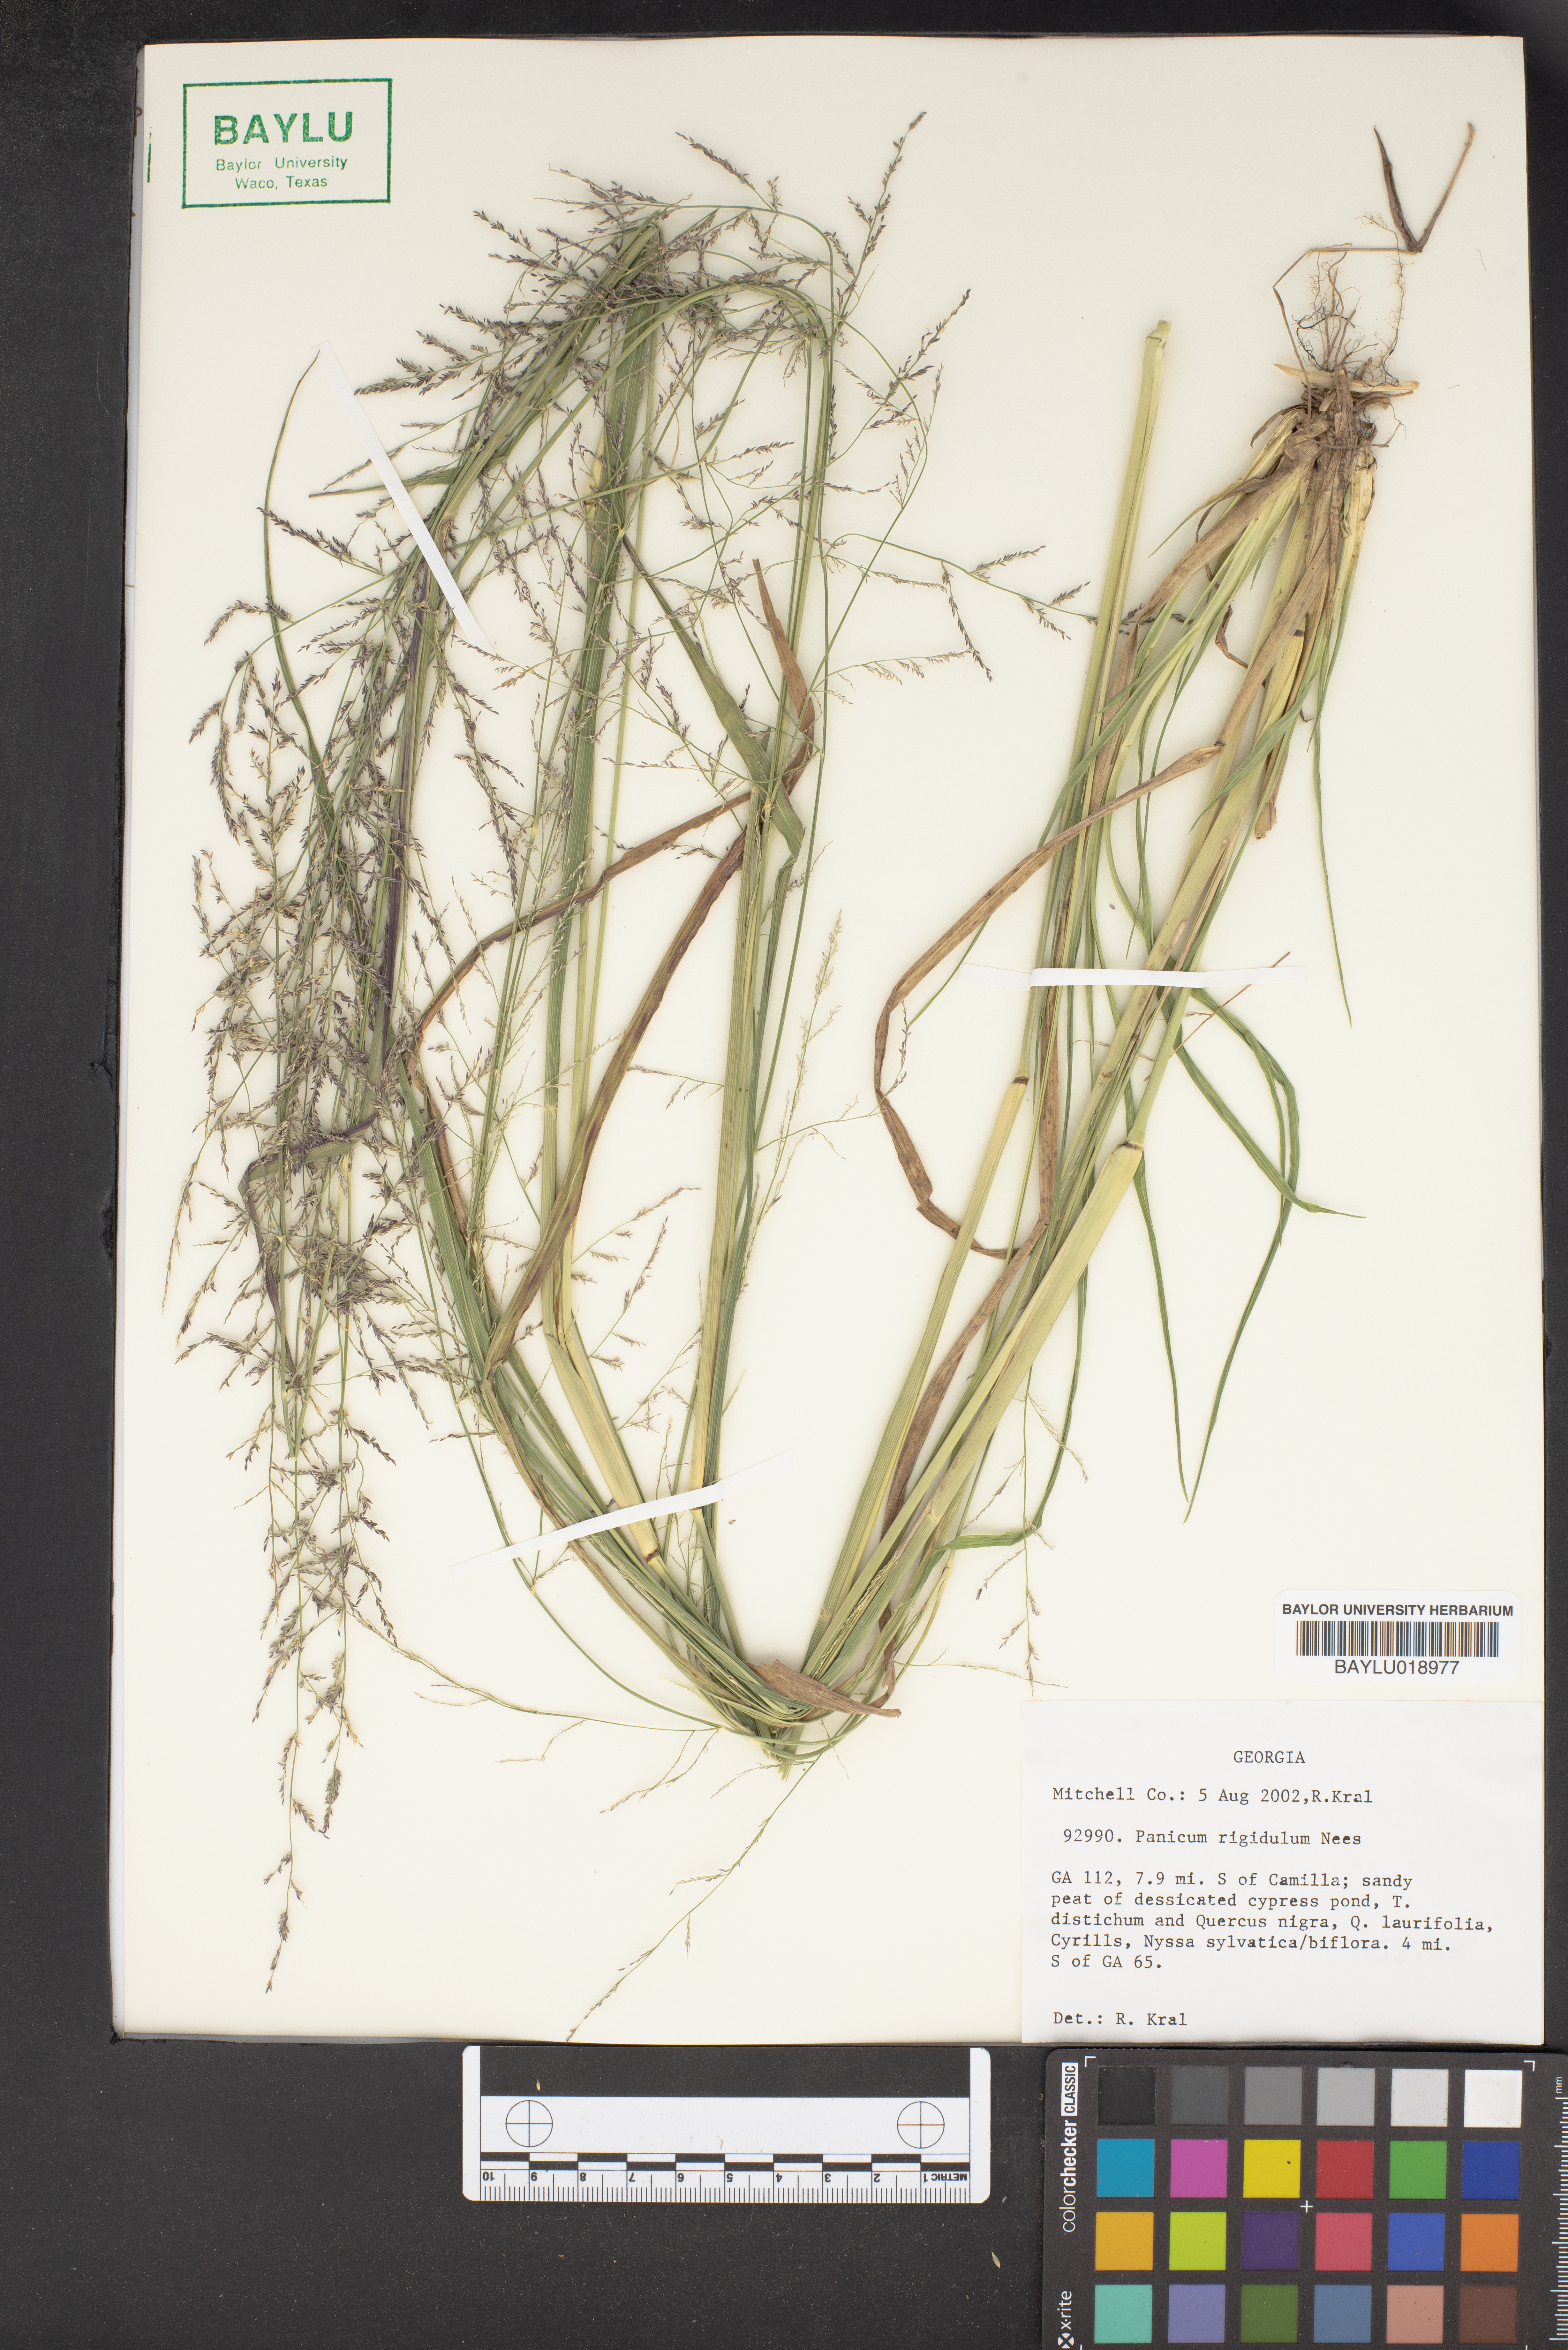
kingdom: Plantae
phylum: Tracheophyta
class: Liliopsida
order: Poales
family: Poaceae
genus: Coleataenia
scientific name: Coleataenia rigidula
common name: Redtop panicgrass
